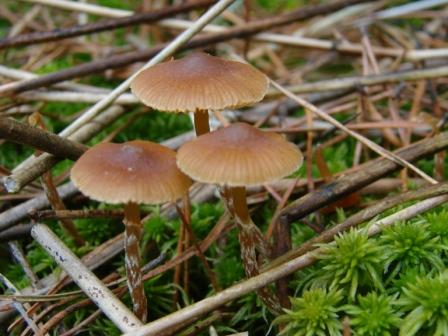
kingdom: Fungi
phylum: Basidiomycota
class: Agaricomycetes
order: Agaricales
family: Hymenogastraceae
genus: Galerina
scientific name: Galerina paludosa
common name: mose-hjelmhat
